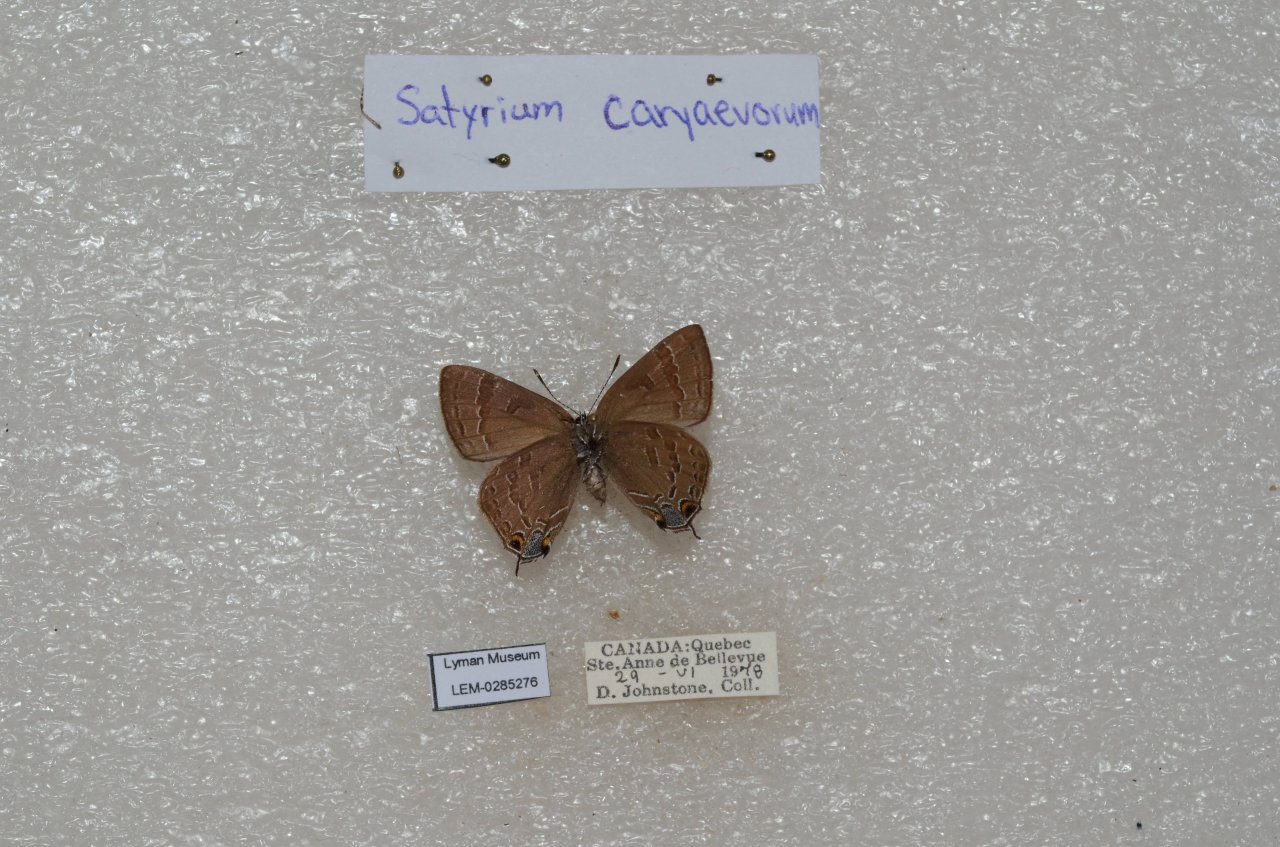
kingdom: Animalia
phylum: Arthropoda
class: Insecta
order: Lepidoptera
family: Lycaenidae
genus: Strymon
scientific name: Strymon caryaevorus
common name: Hickory Hairstreak
